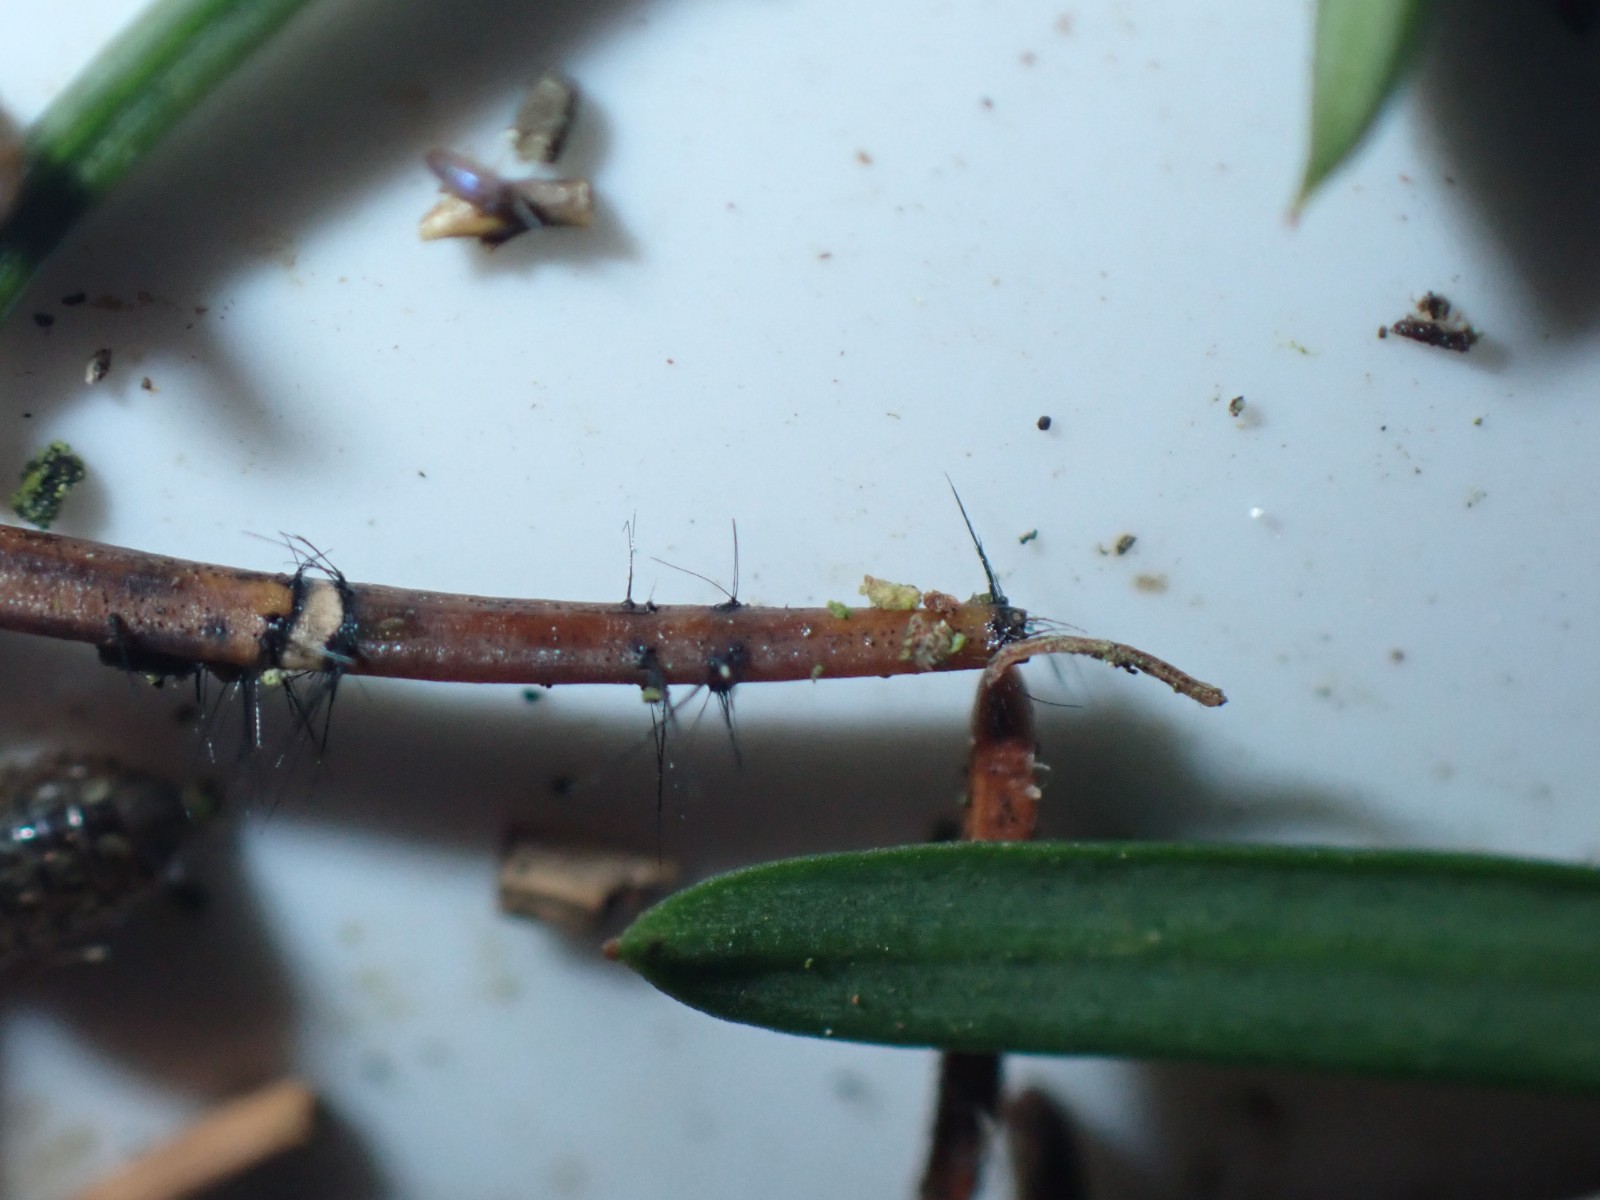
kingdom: Fungi
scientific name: Fungi
